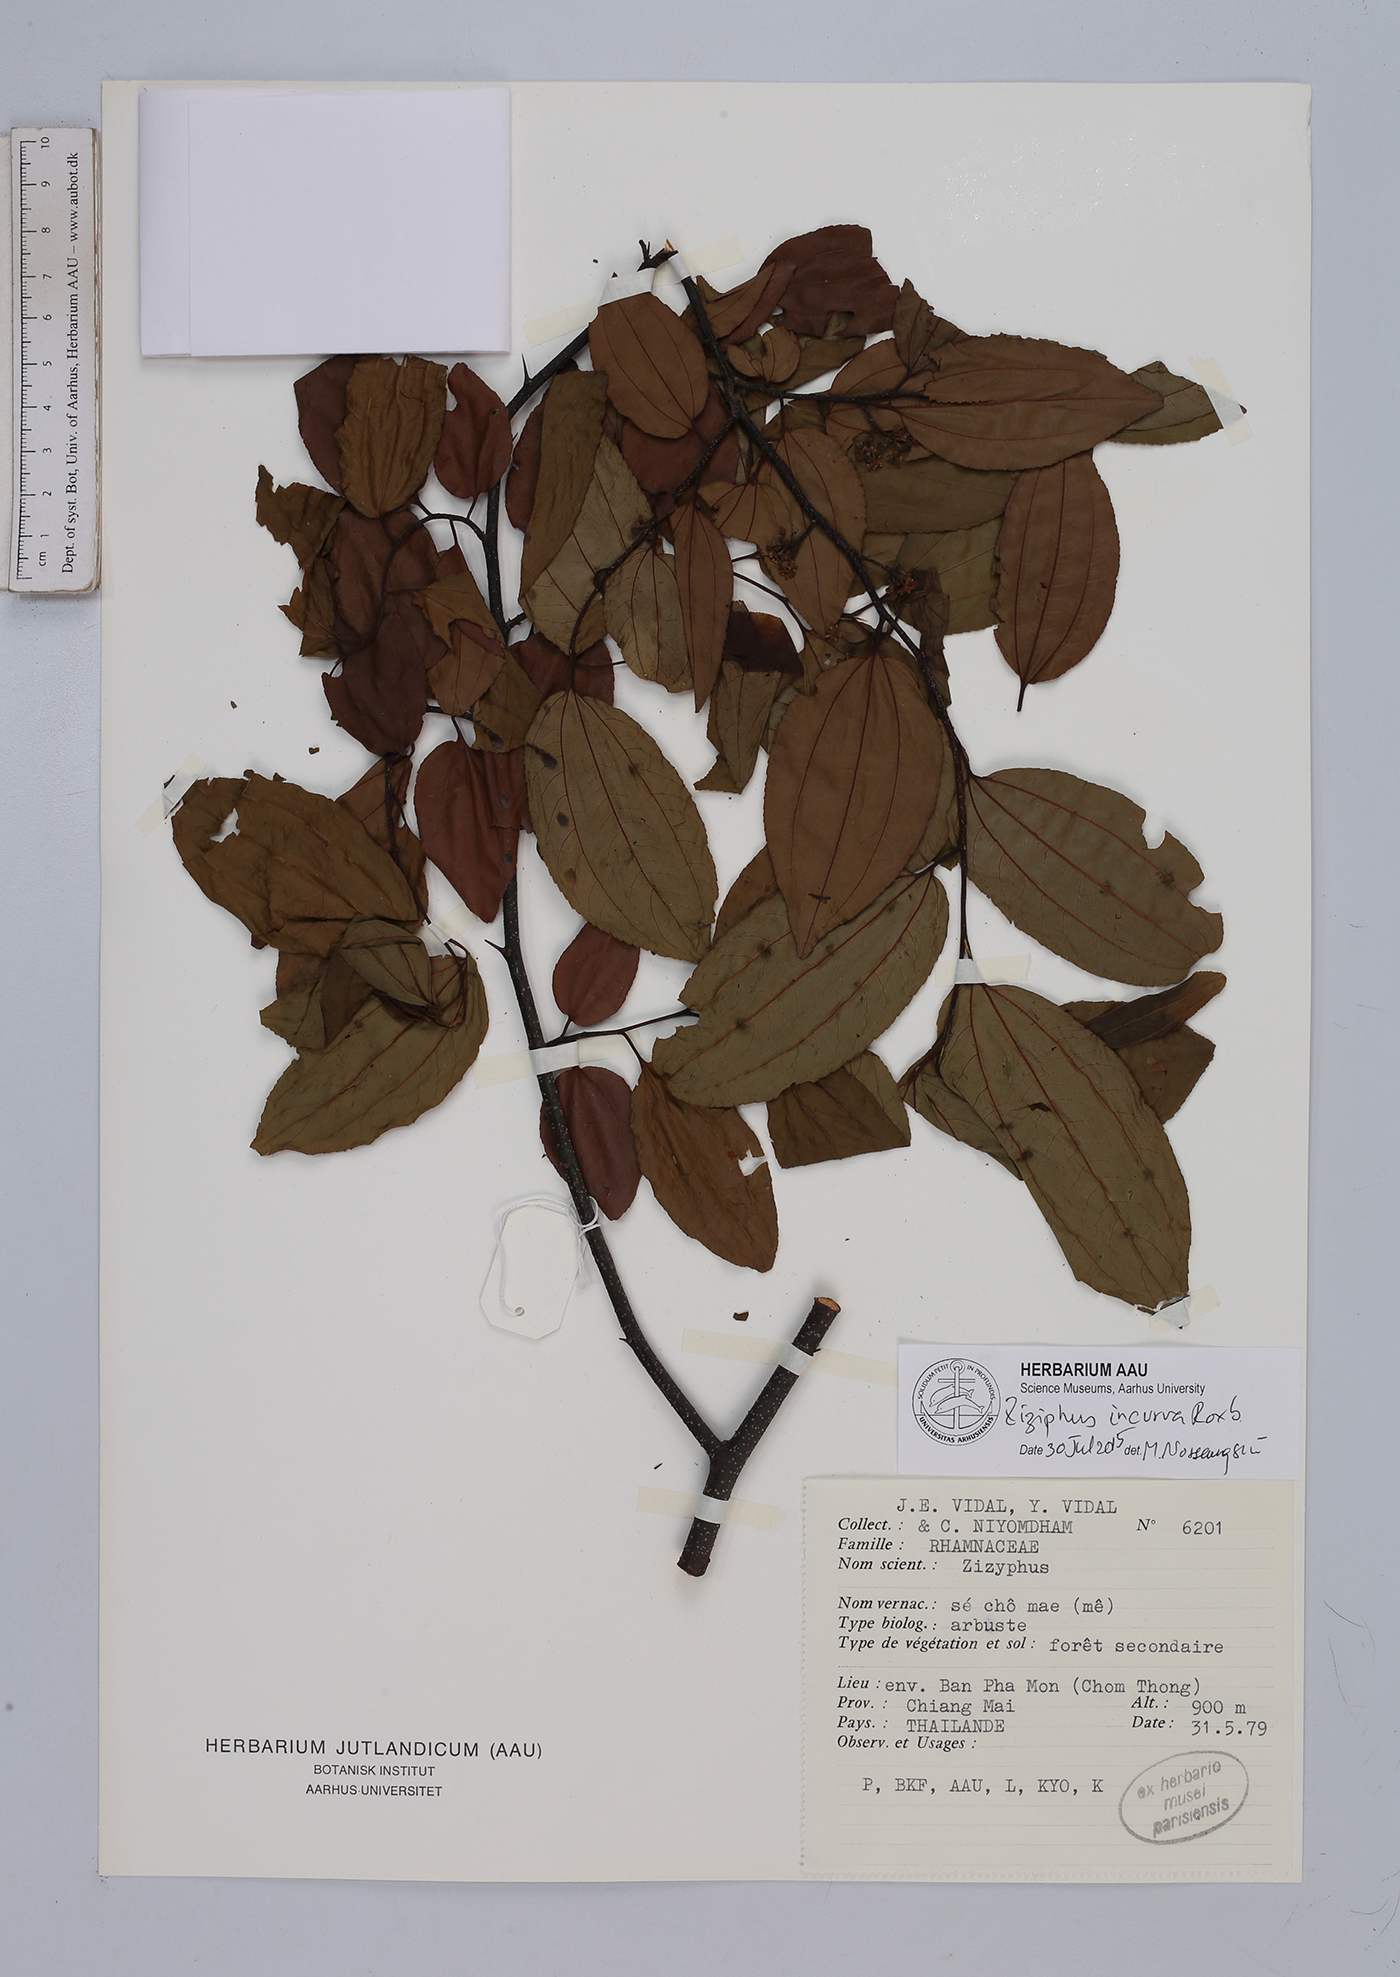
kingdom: Plantae
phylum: Tracheophyta
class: Magnoliopsida
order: Rosales
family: Rhamnaceae
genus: Ziziphus
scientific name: Ziziphus incurva
